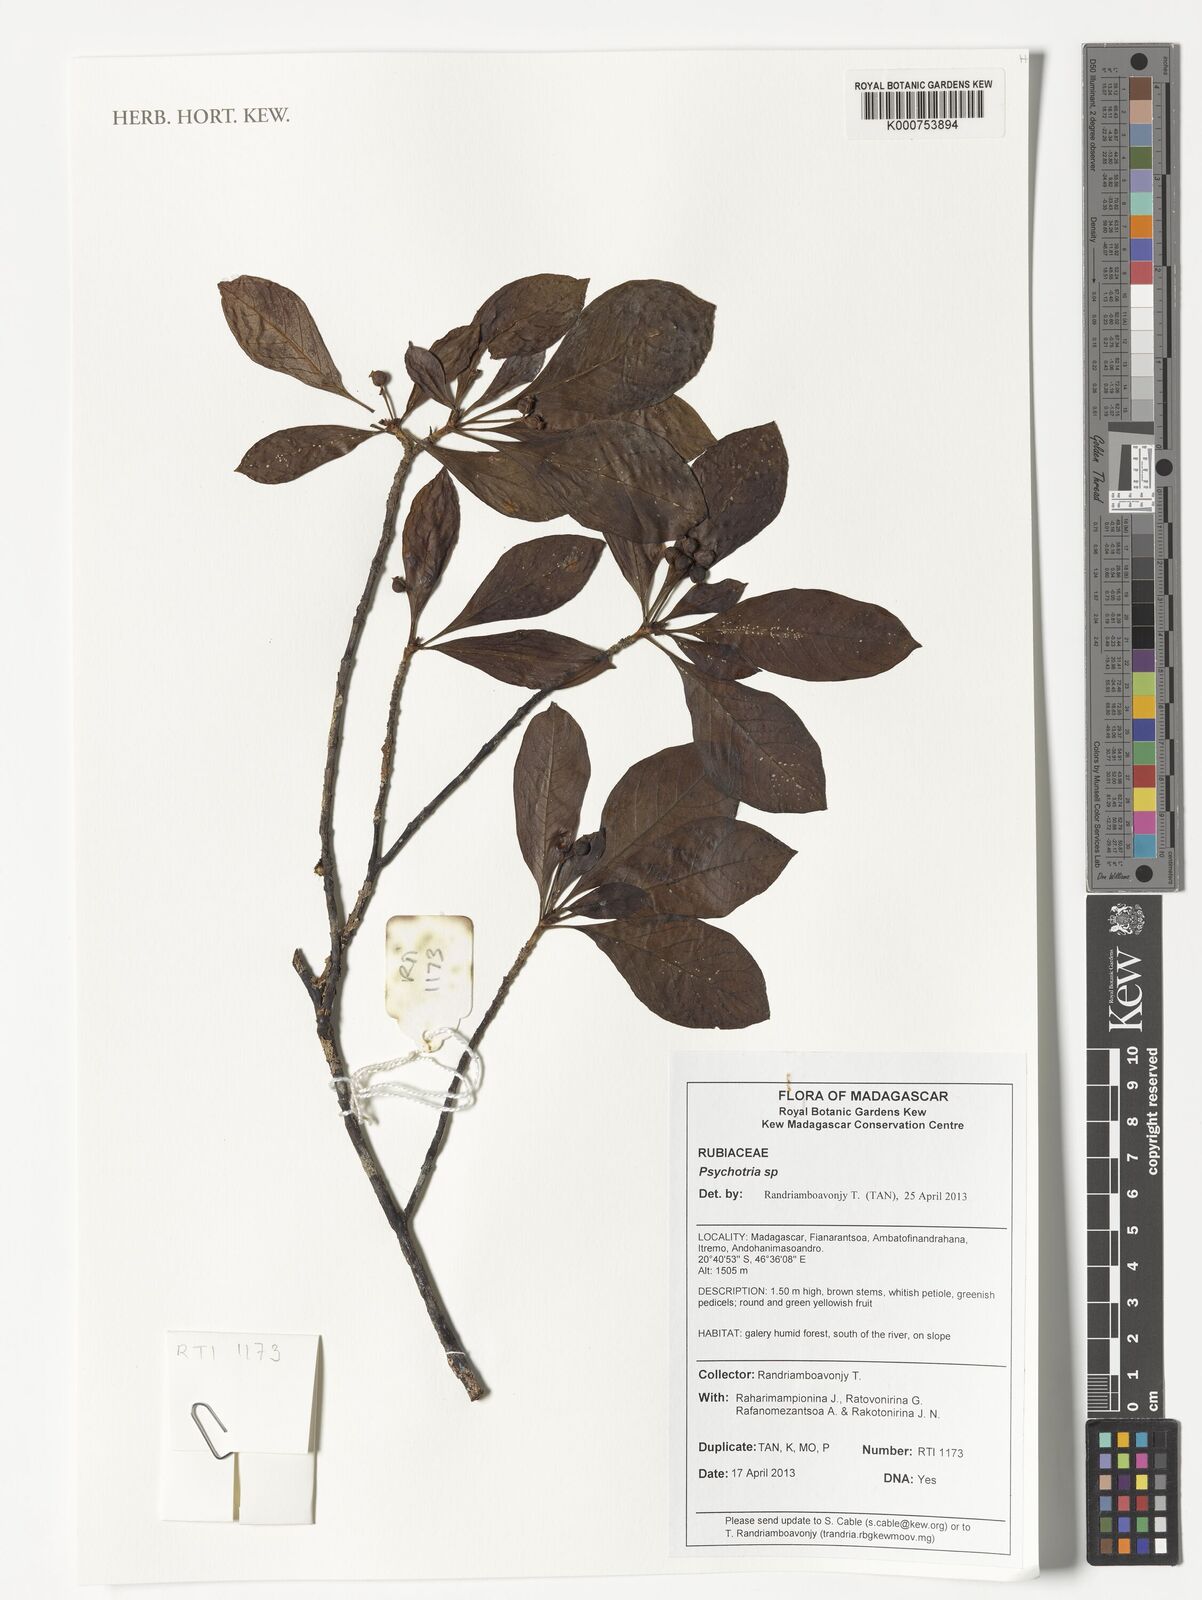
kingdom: Plantae
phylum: Tracheophyta
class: Magnoliopsida
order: Gentianales
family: Rubiaceae
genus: Psychotria
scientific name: Psychotria
